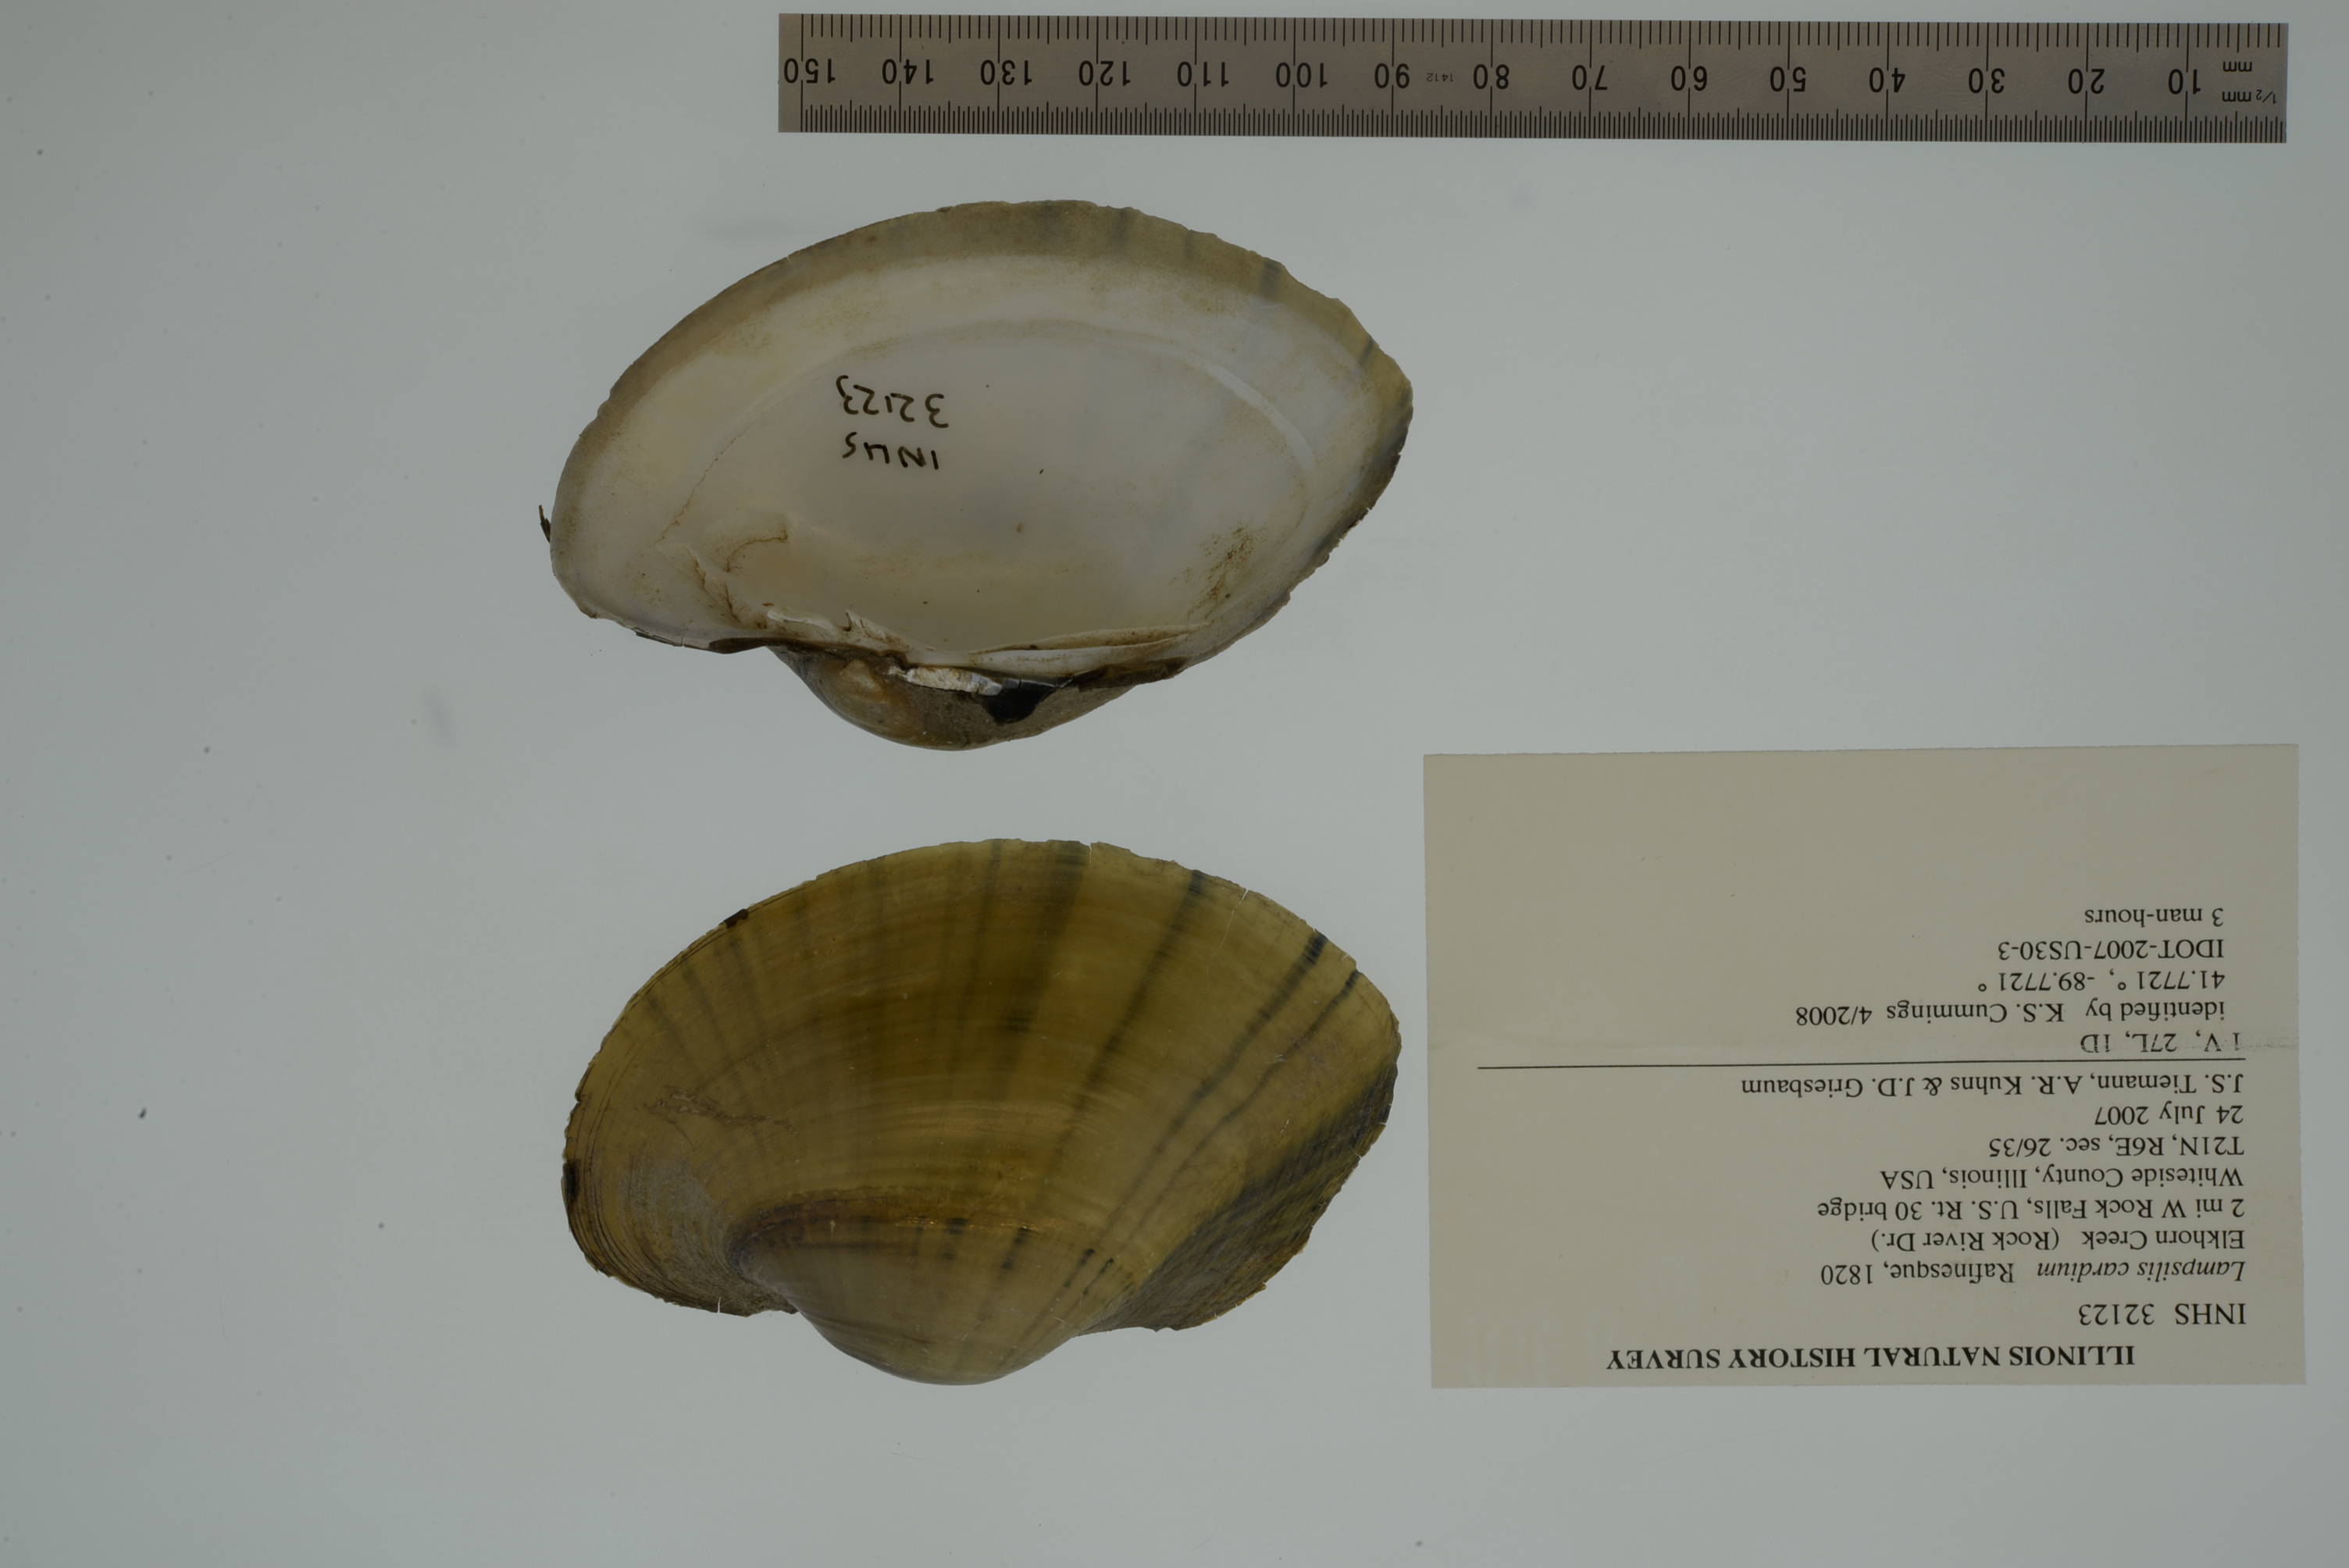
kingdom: Animalia
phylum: Mollusca
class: Bivalvia
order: Unionida
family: Unionidae
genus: Lampsilis
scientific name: Lampsilis cardium
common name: Plain pocketbook
